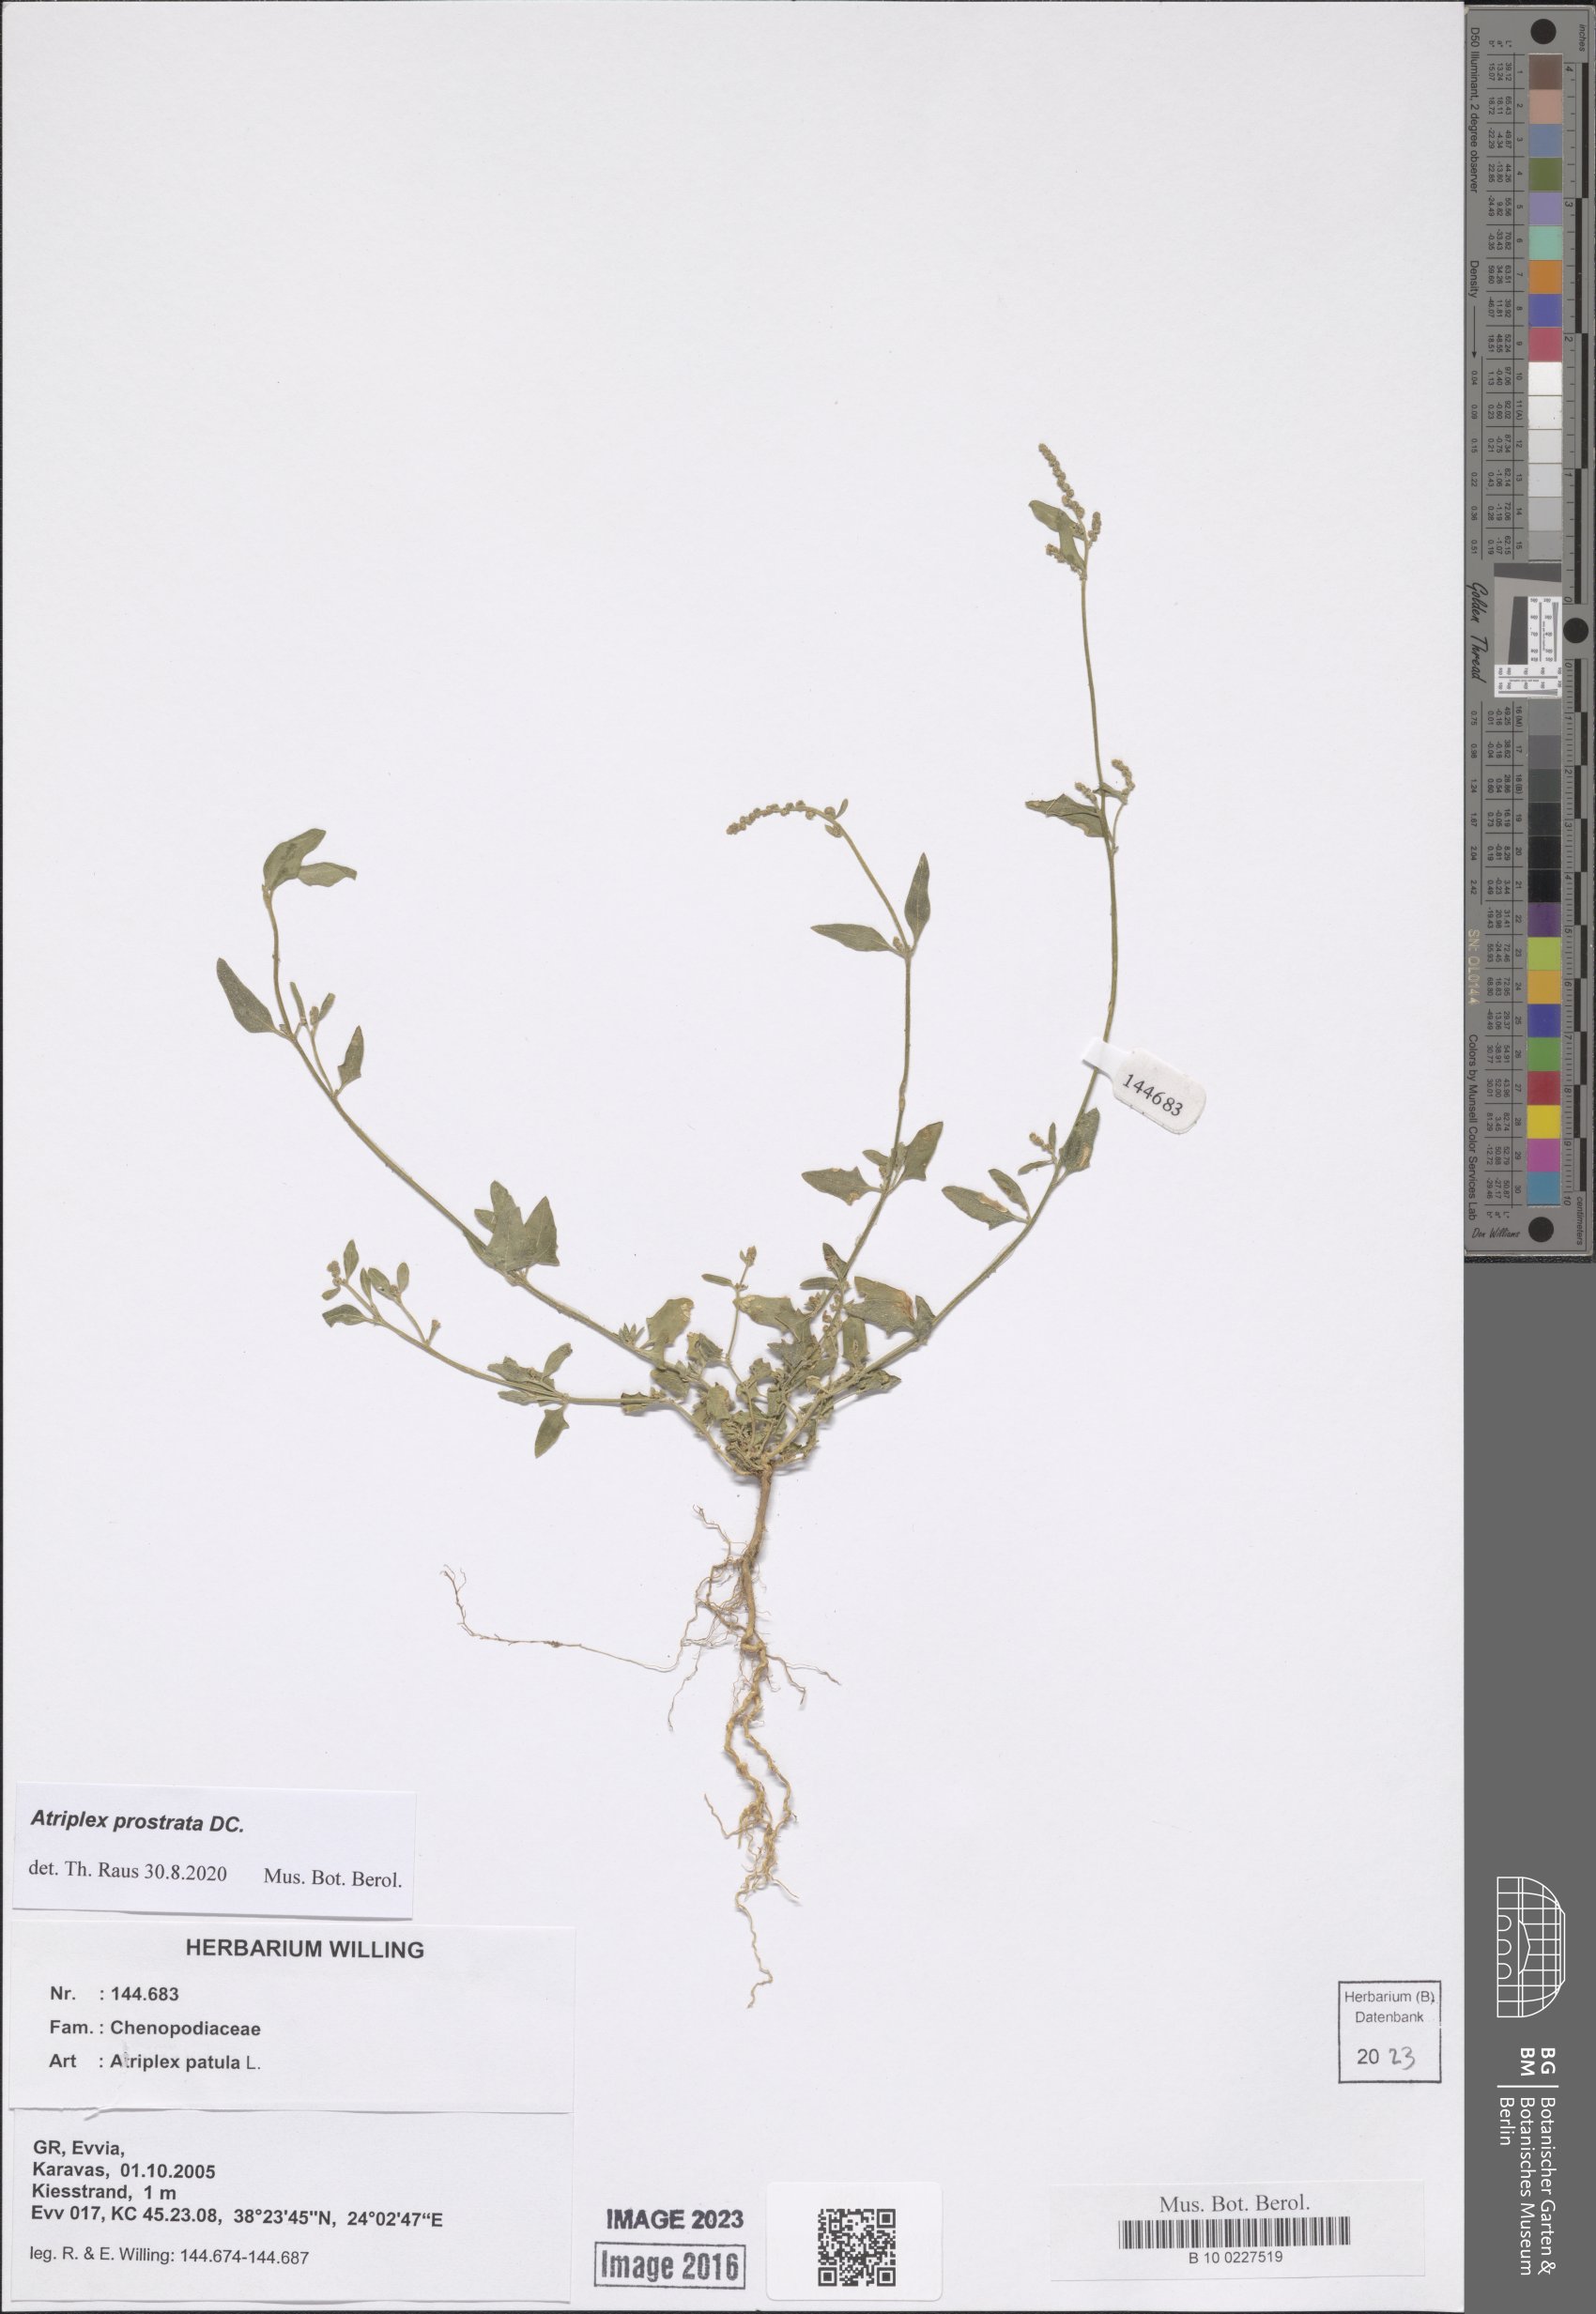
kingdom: Plantae
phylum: Tracheophyta
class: Magnoliopsida
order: Caryophyllales
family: Amaranthaceae
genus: Atriplex
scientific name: Atriplex prostrata
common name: Spear-leaved orache
